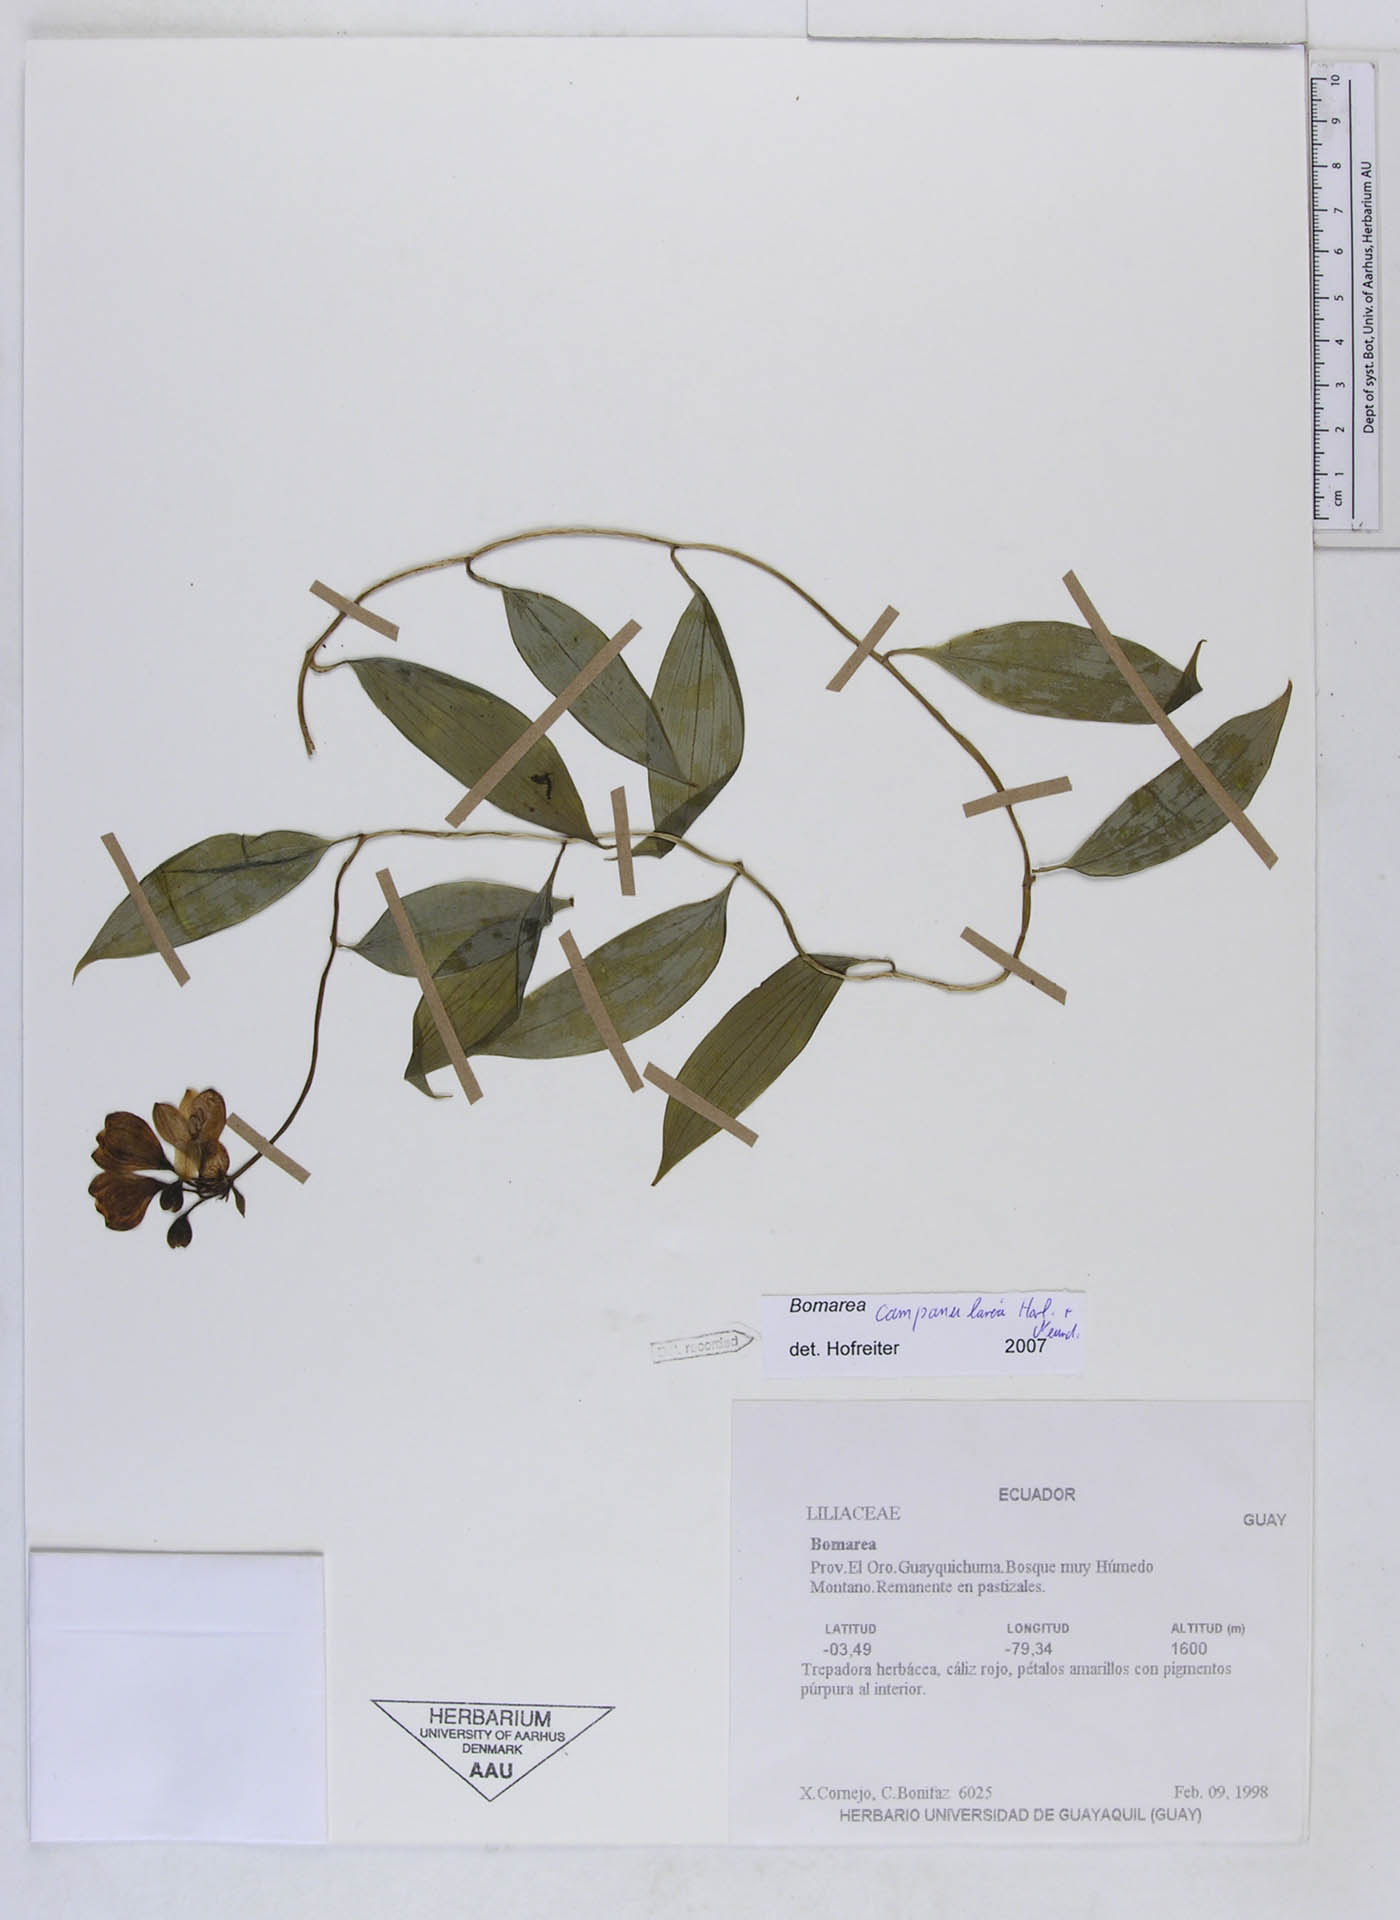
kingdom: Plantae
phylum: Tracheophyta
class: Liliopsida
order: Liliales
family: Alstroemeriaceae
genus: Bomarea
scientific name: Bomarea campanularia
